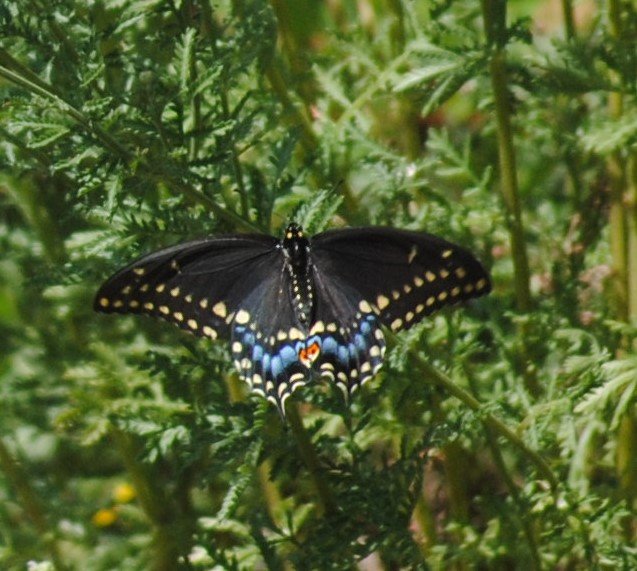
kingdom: Animalia
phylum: Arthropoda
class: Insecta
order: Lepidoptera
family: Papilionidae
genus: Papilio
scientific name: Papilio polyxenes
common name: Black Swallowtail
